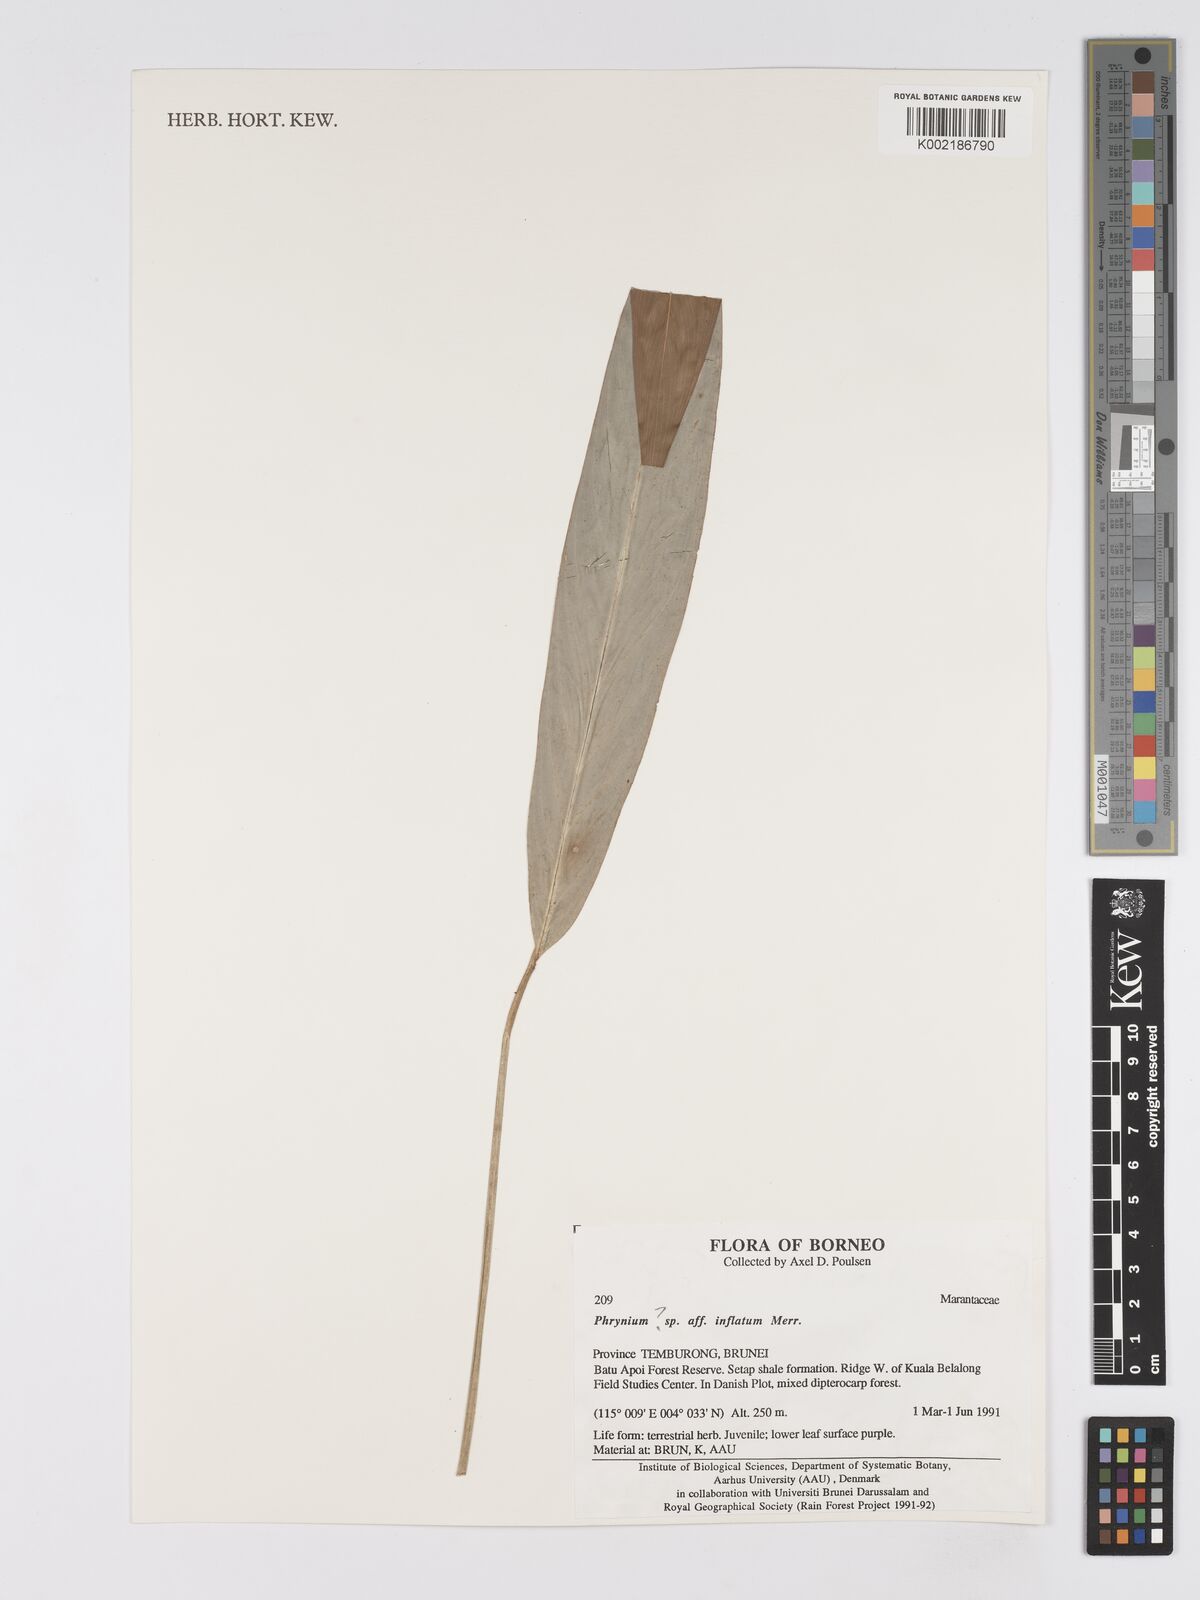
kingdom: Plantae
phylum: Tracheophyta
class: Liliopsida
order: Zingiberales
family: Marantaceae
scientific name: Marantaceae
